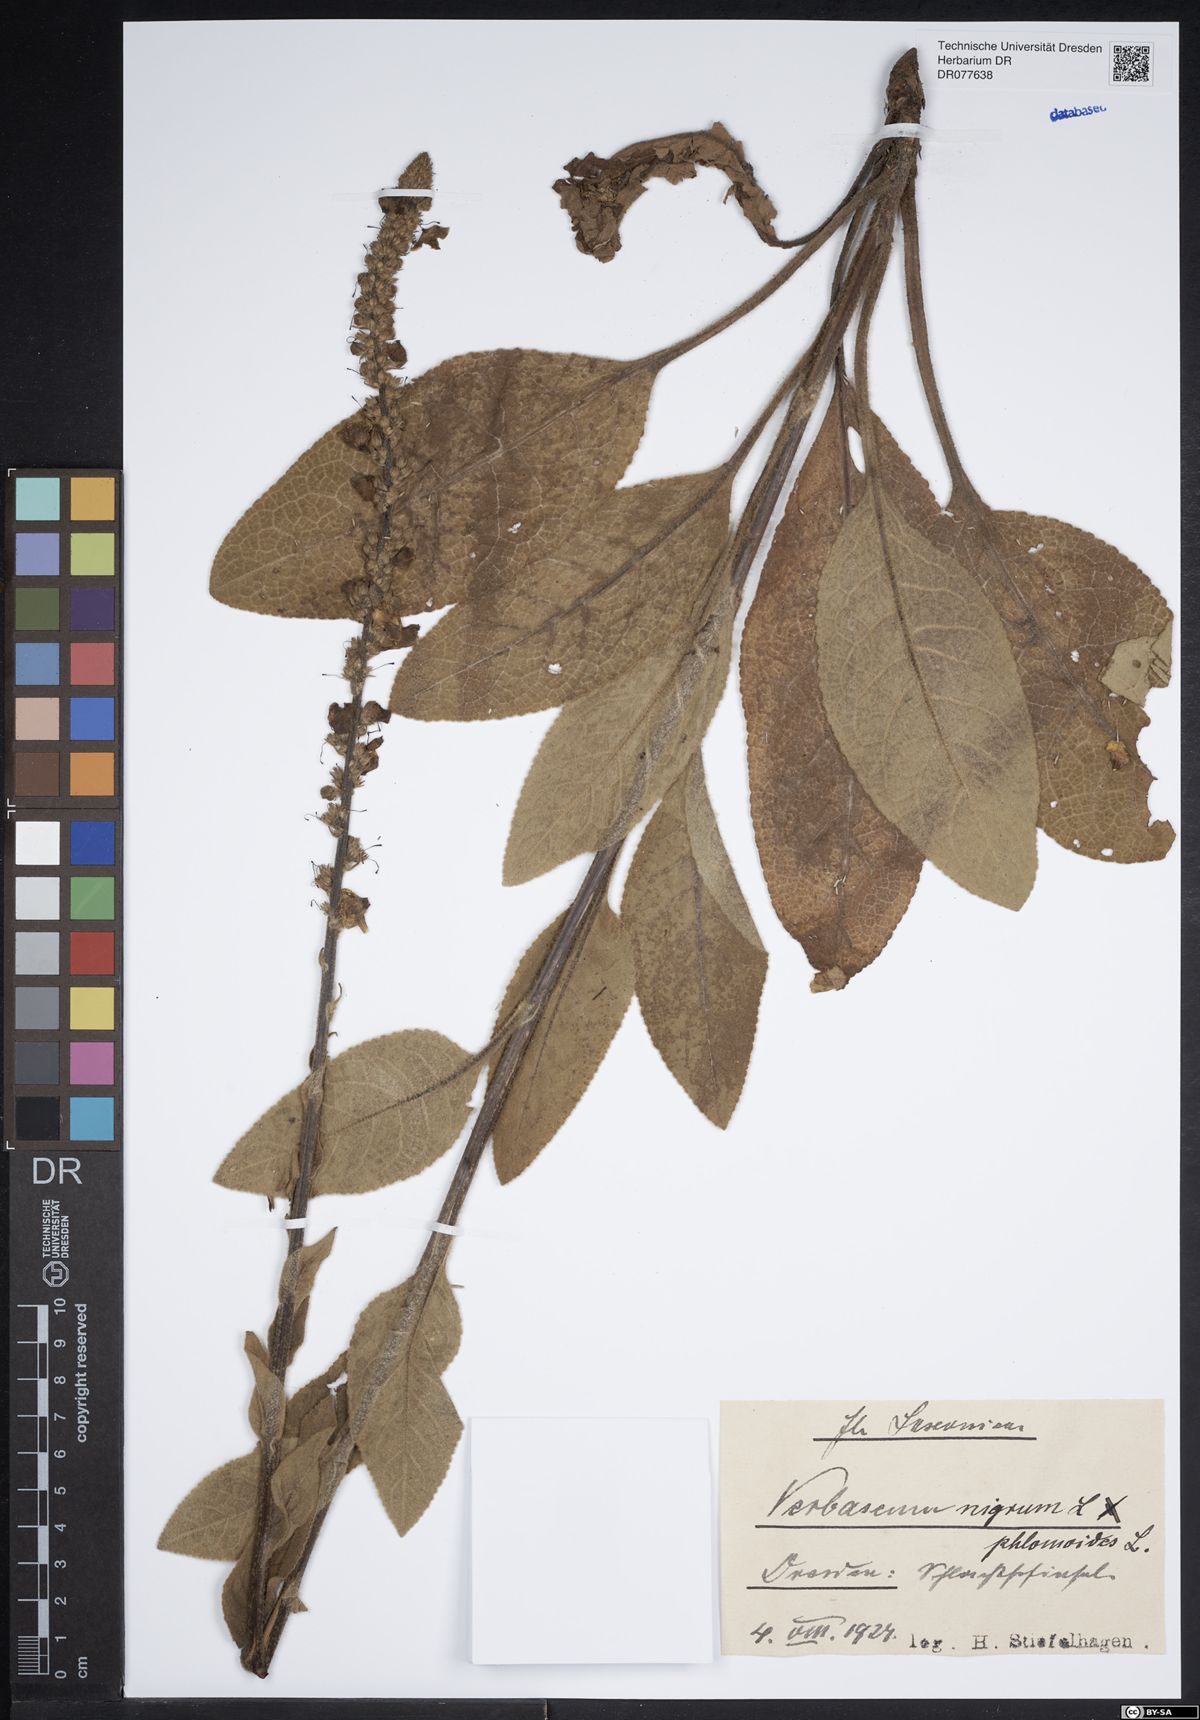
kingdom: Plantae
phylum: Tracheophyta
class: Magnoliopsida
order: Lamiales
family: Scrophulariaceae
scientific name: Scrophulariaceae
